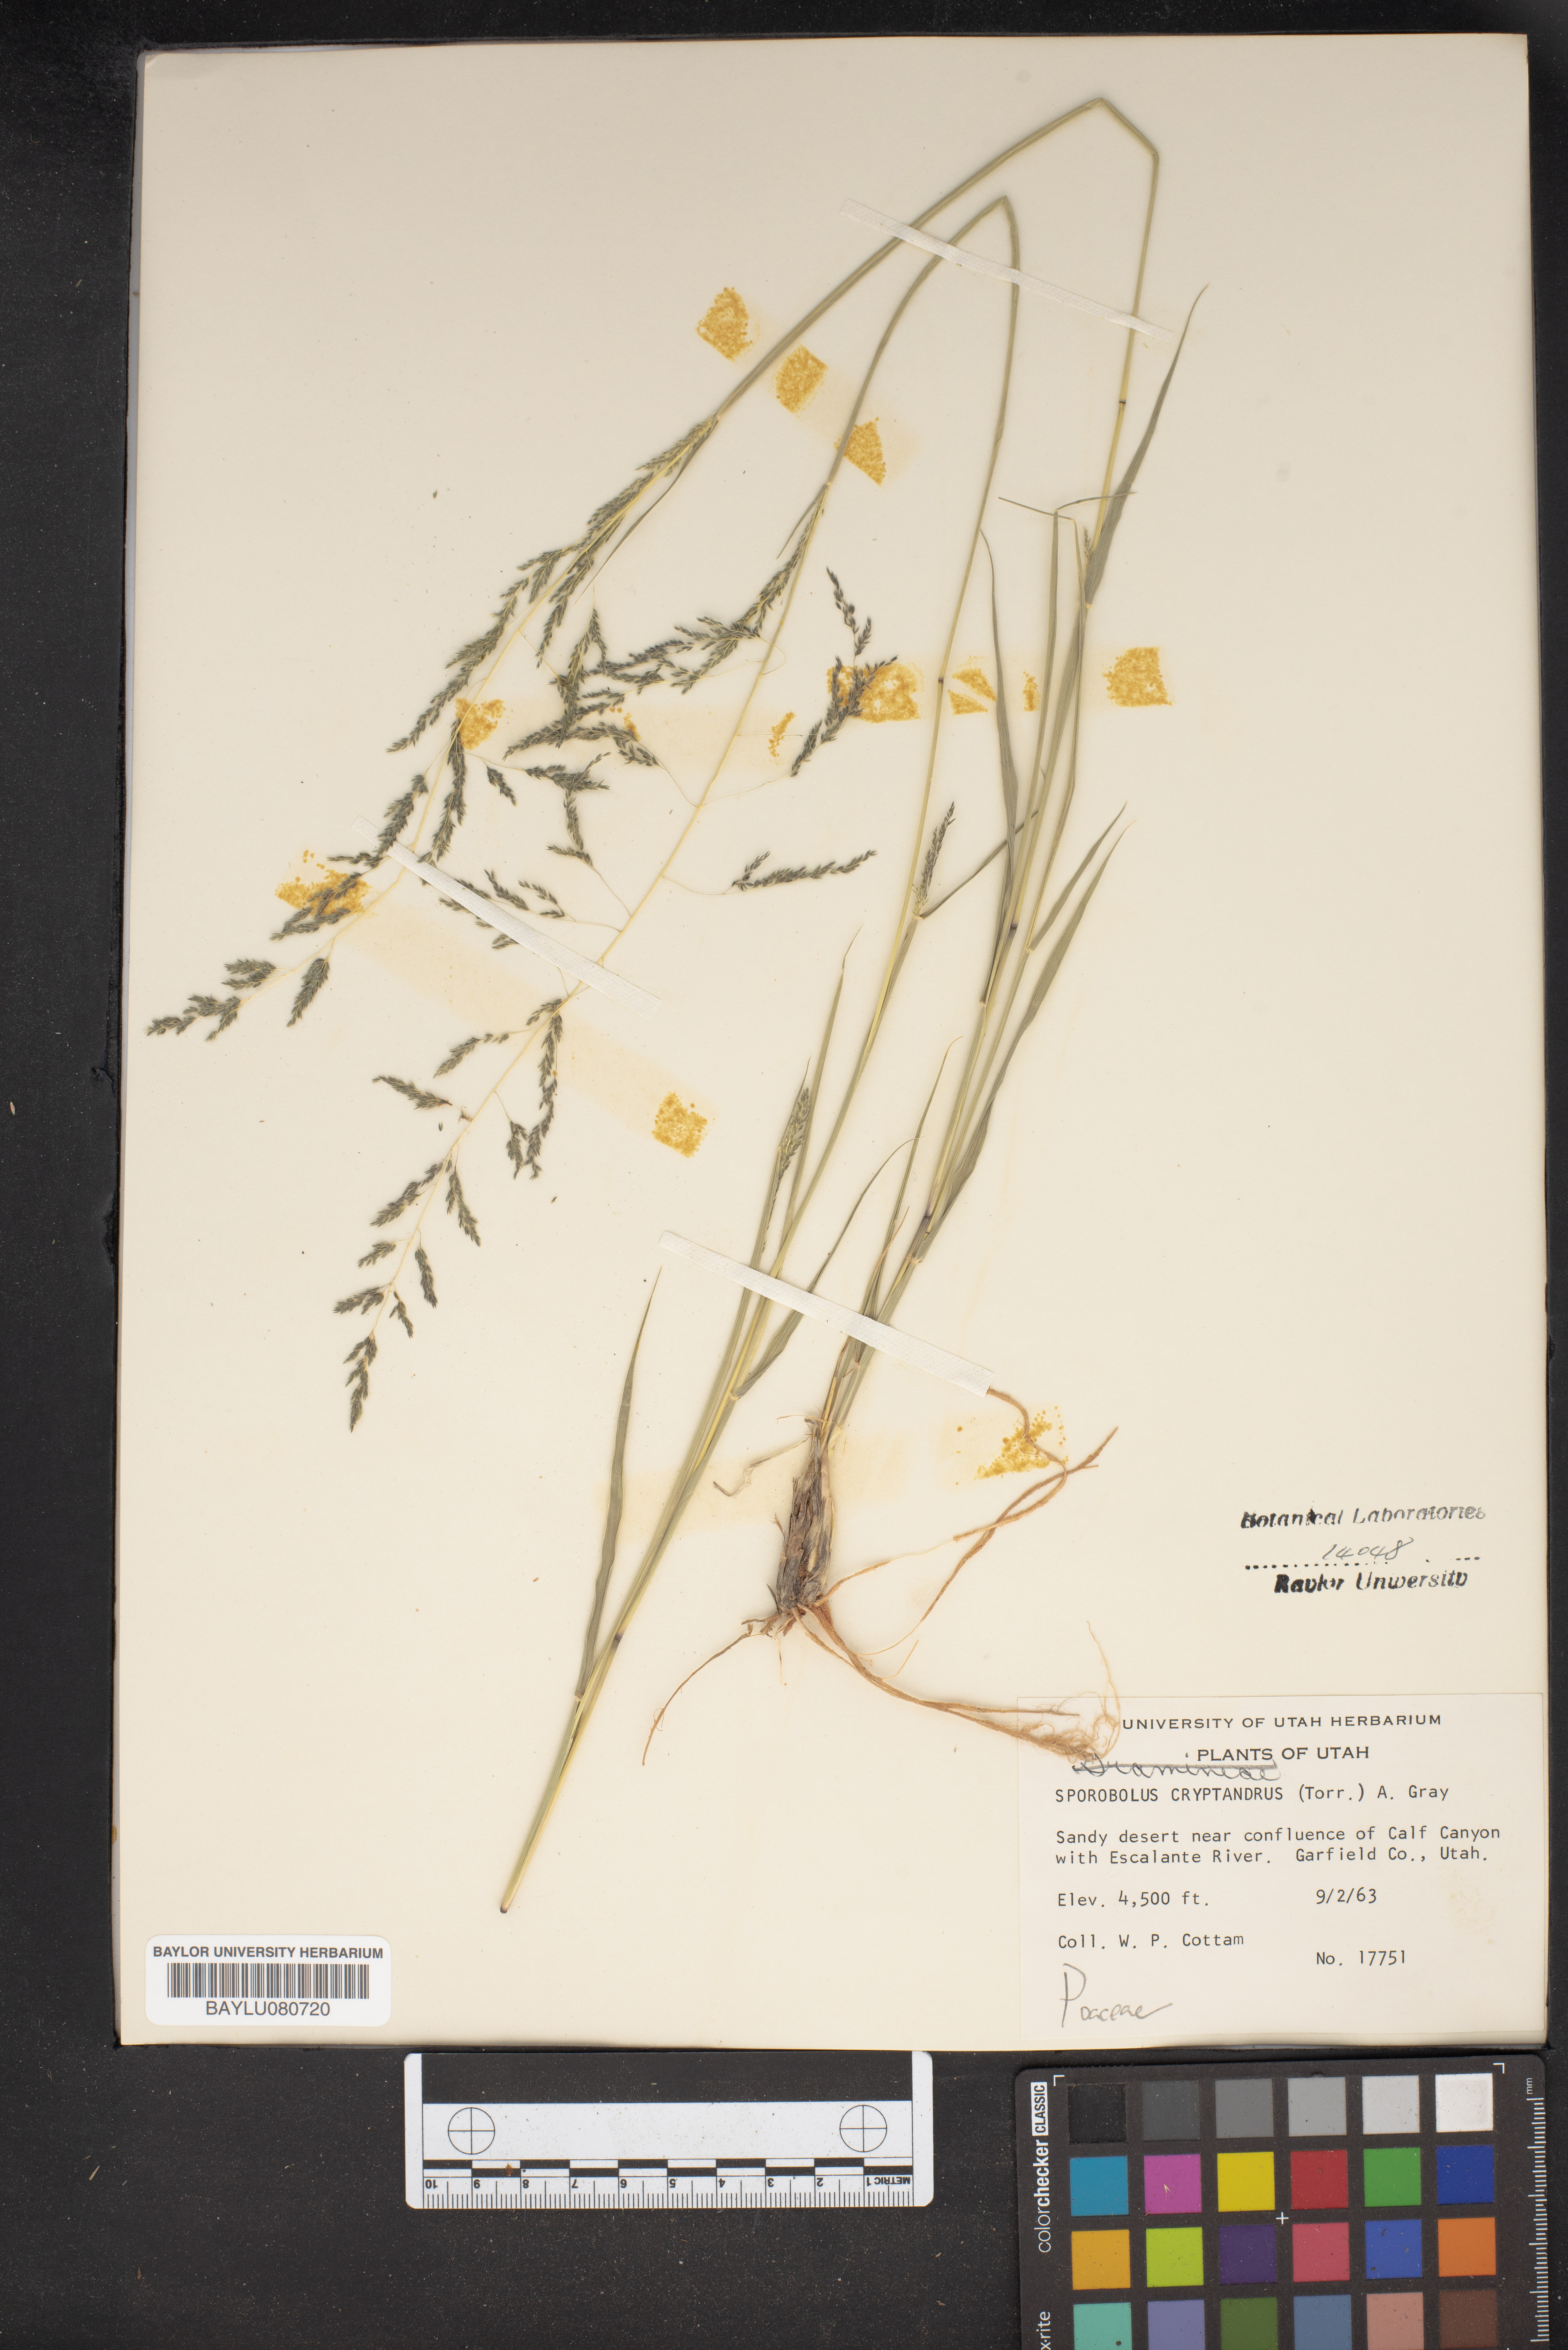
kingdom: Plantae
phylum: Tracheophyta
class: Liliopsida
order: Poales
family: Poaceae
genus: Sporobolus
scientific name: Sporobolus cryptandrus
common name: Sand dropseed
